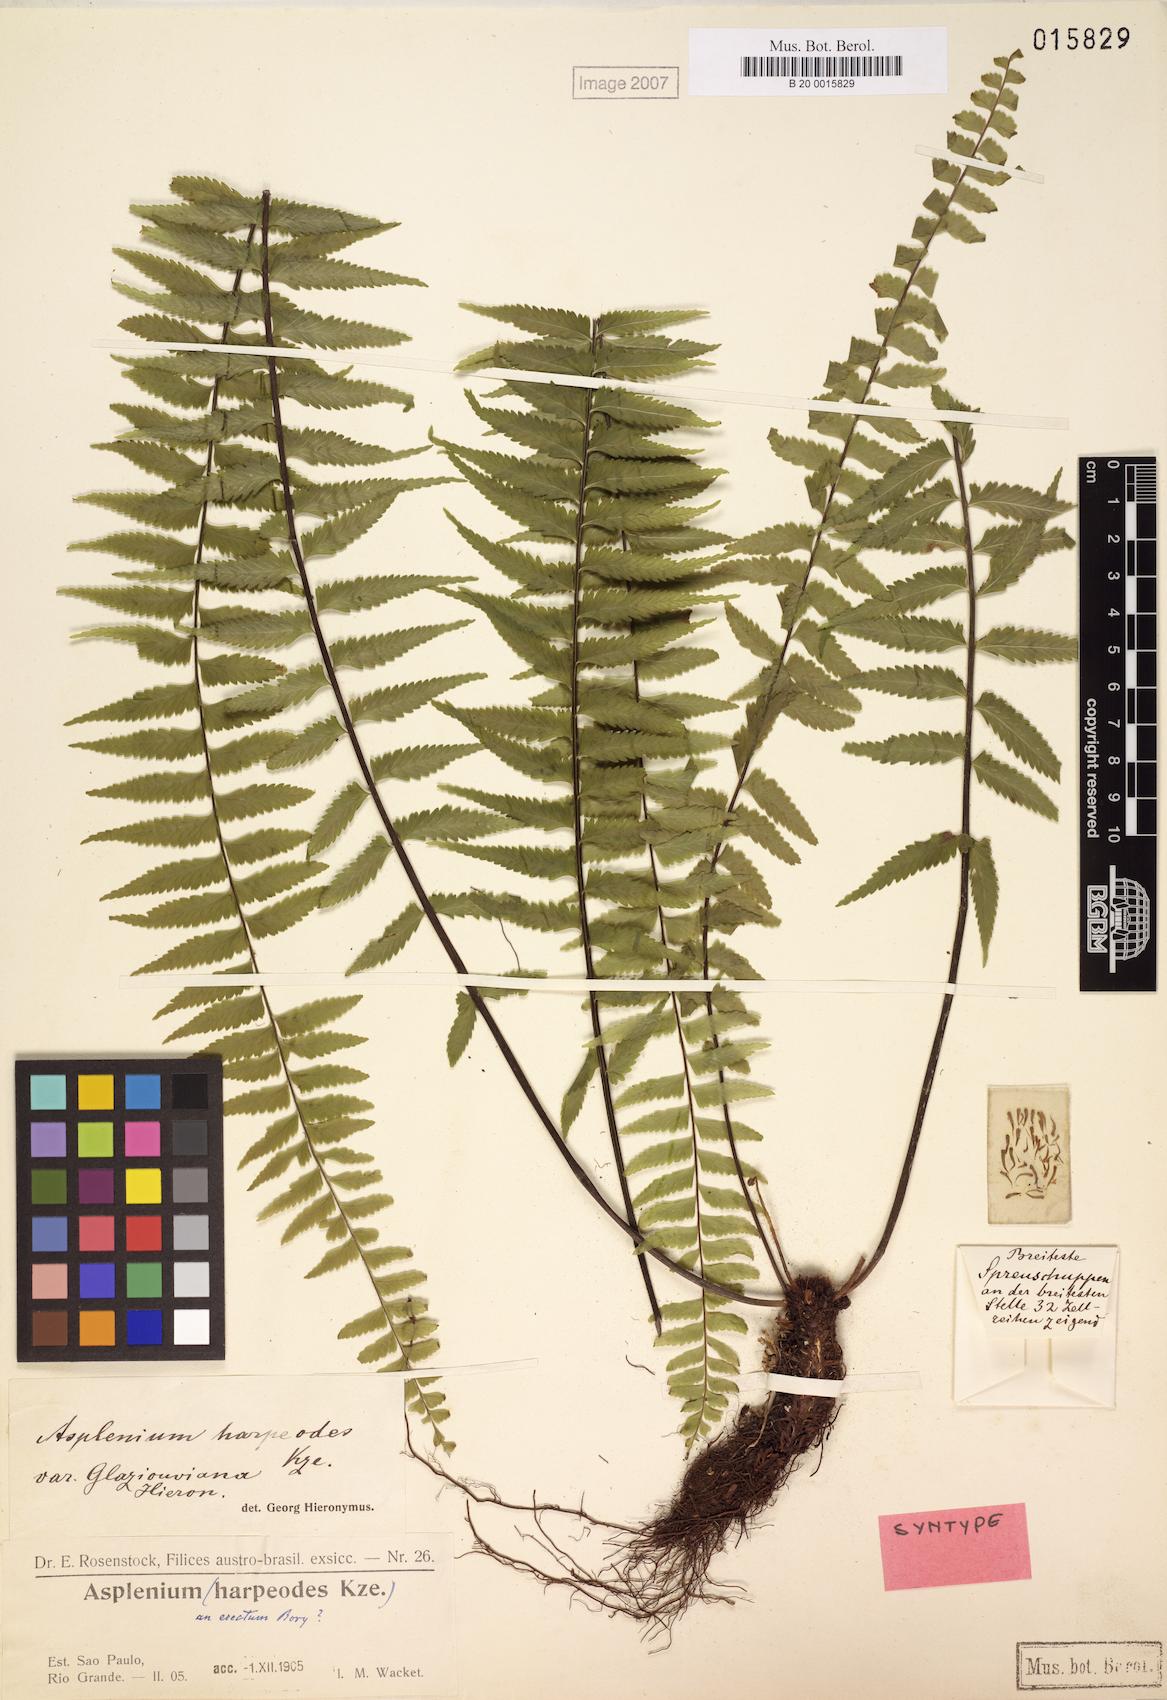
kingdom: Plantae
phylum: Tracheophyta
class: Polypodiopsida
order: Polypodiales
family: Aspleniaceae
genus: Asplenium
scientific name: Asplenium harpeodes
